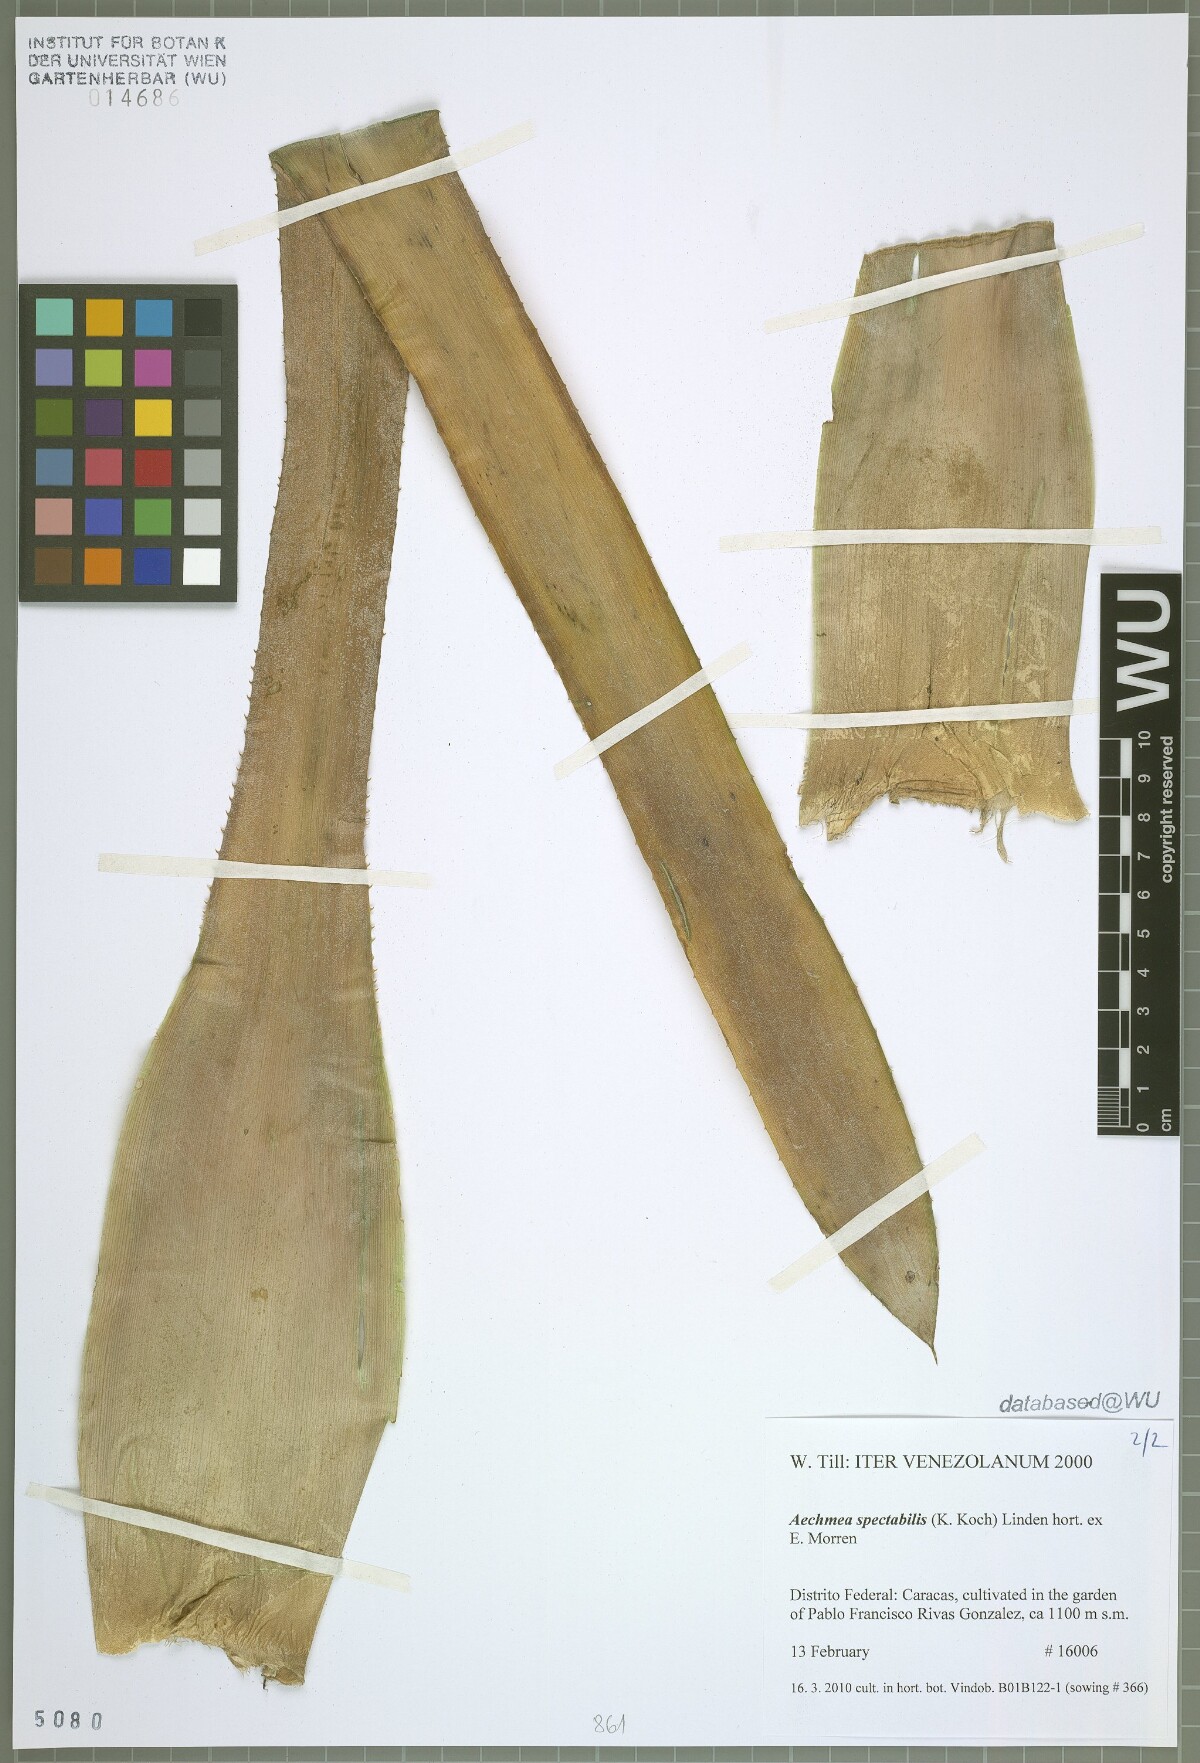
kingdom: Plantae
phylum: Tracheophyta
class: Liliopsida
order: Poales
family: Bromeliaceae
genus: Aechmea
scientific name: Aechmea spectabilis
